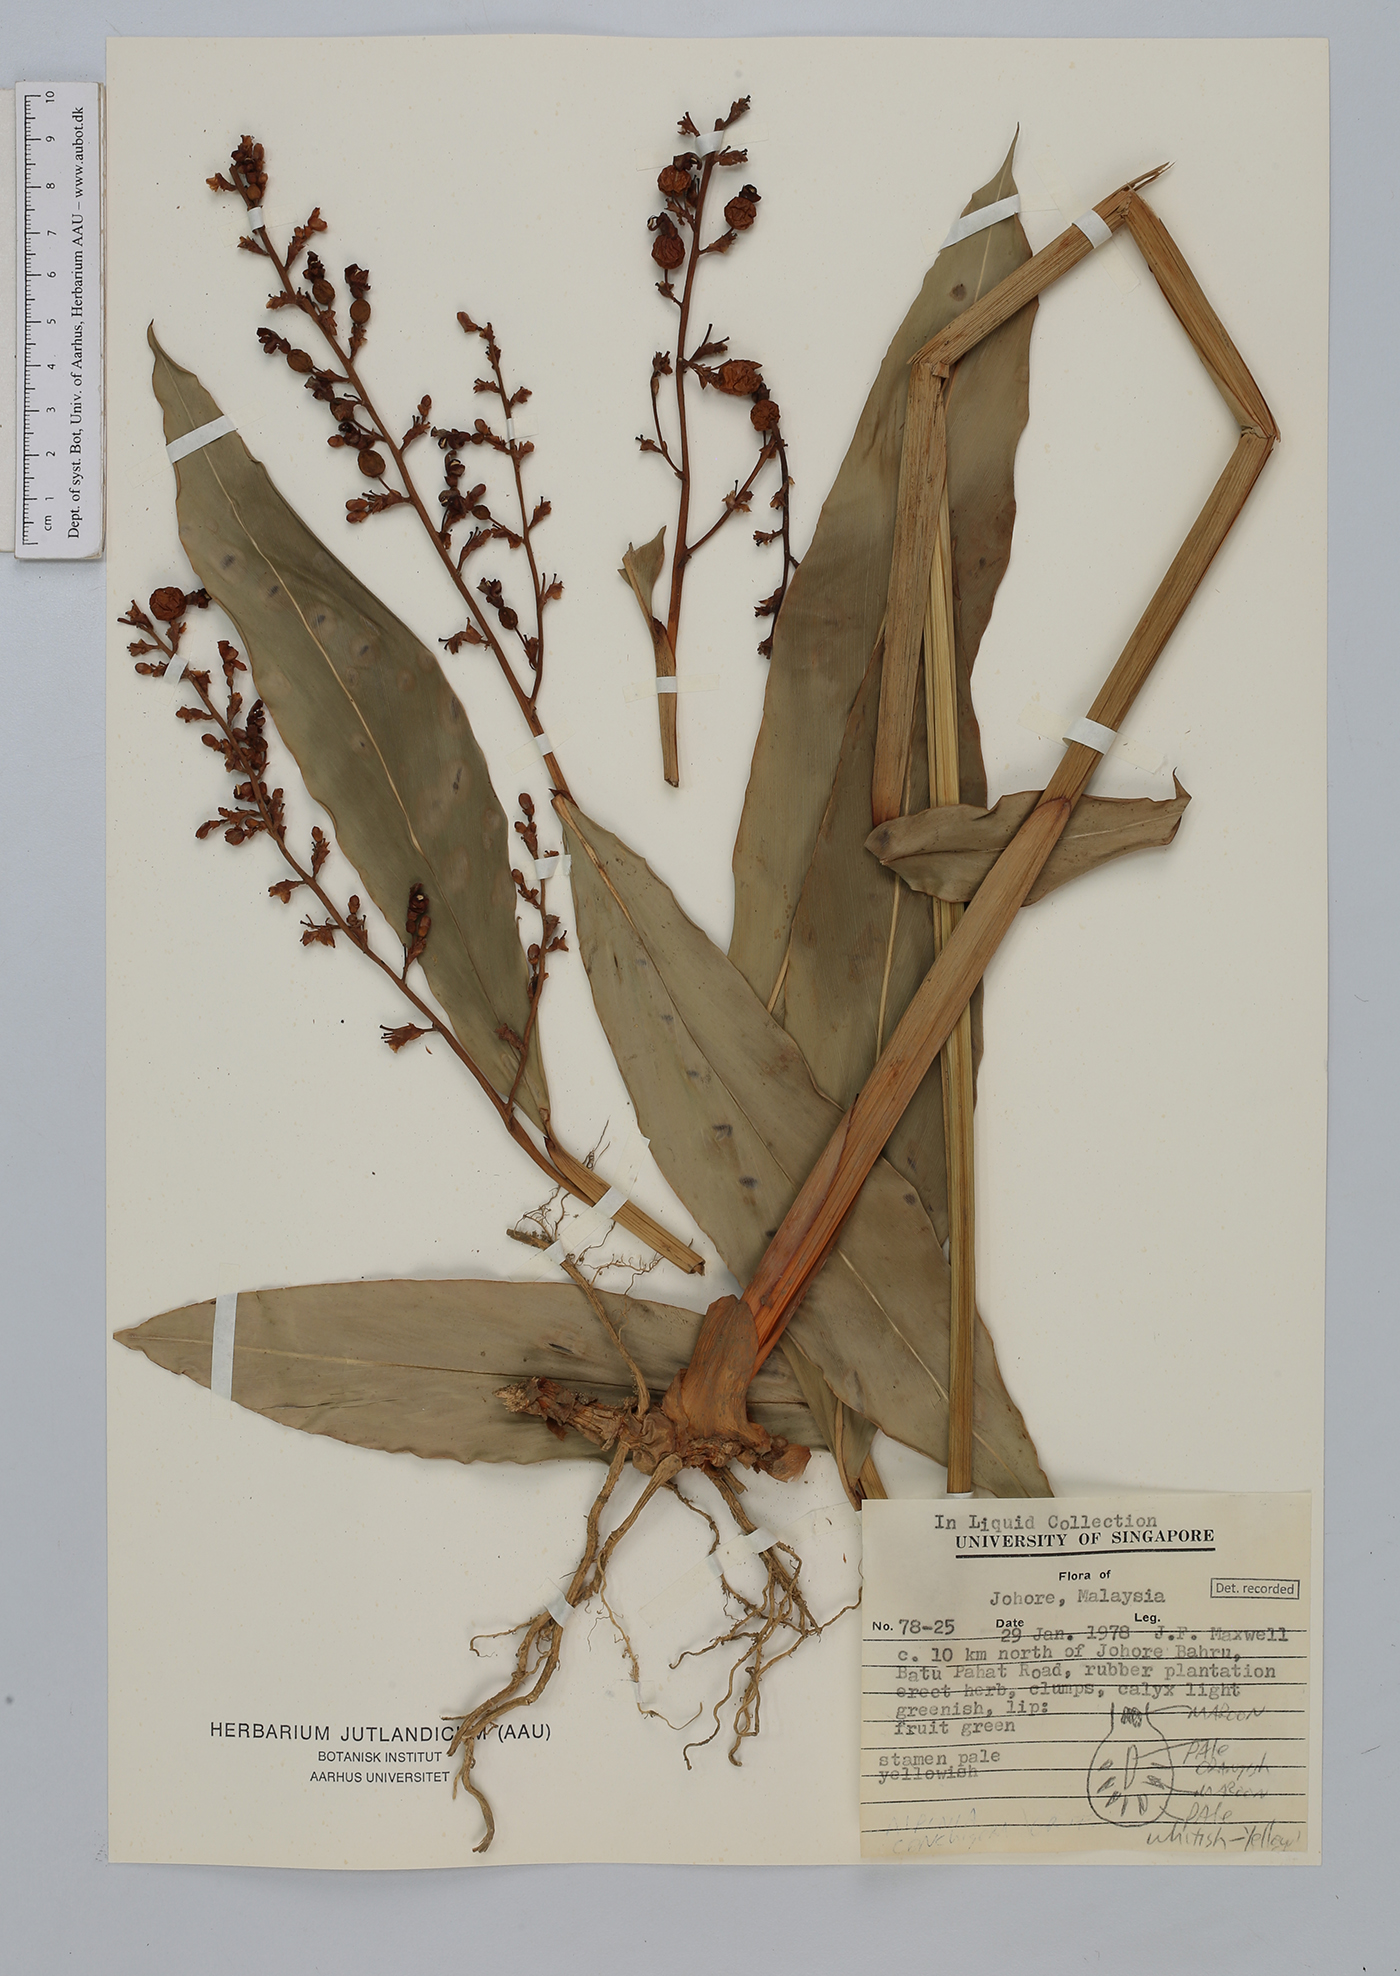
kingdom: Plantae
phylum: Tracheophyta
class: Liliopsida
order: Zingiberales
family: Zingiberaceae
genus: Alpinia
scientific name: Alpinia conchigera
